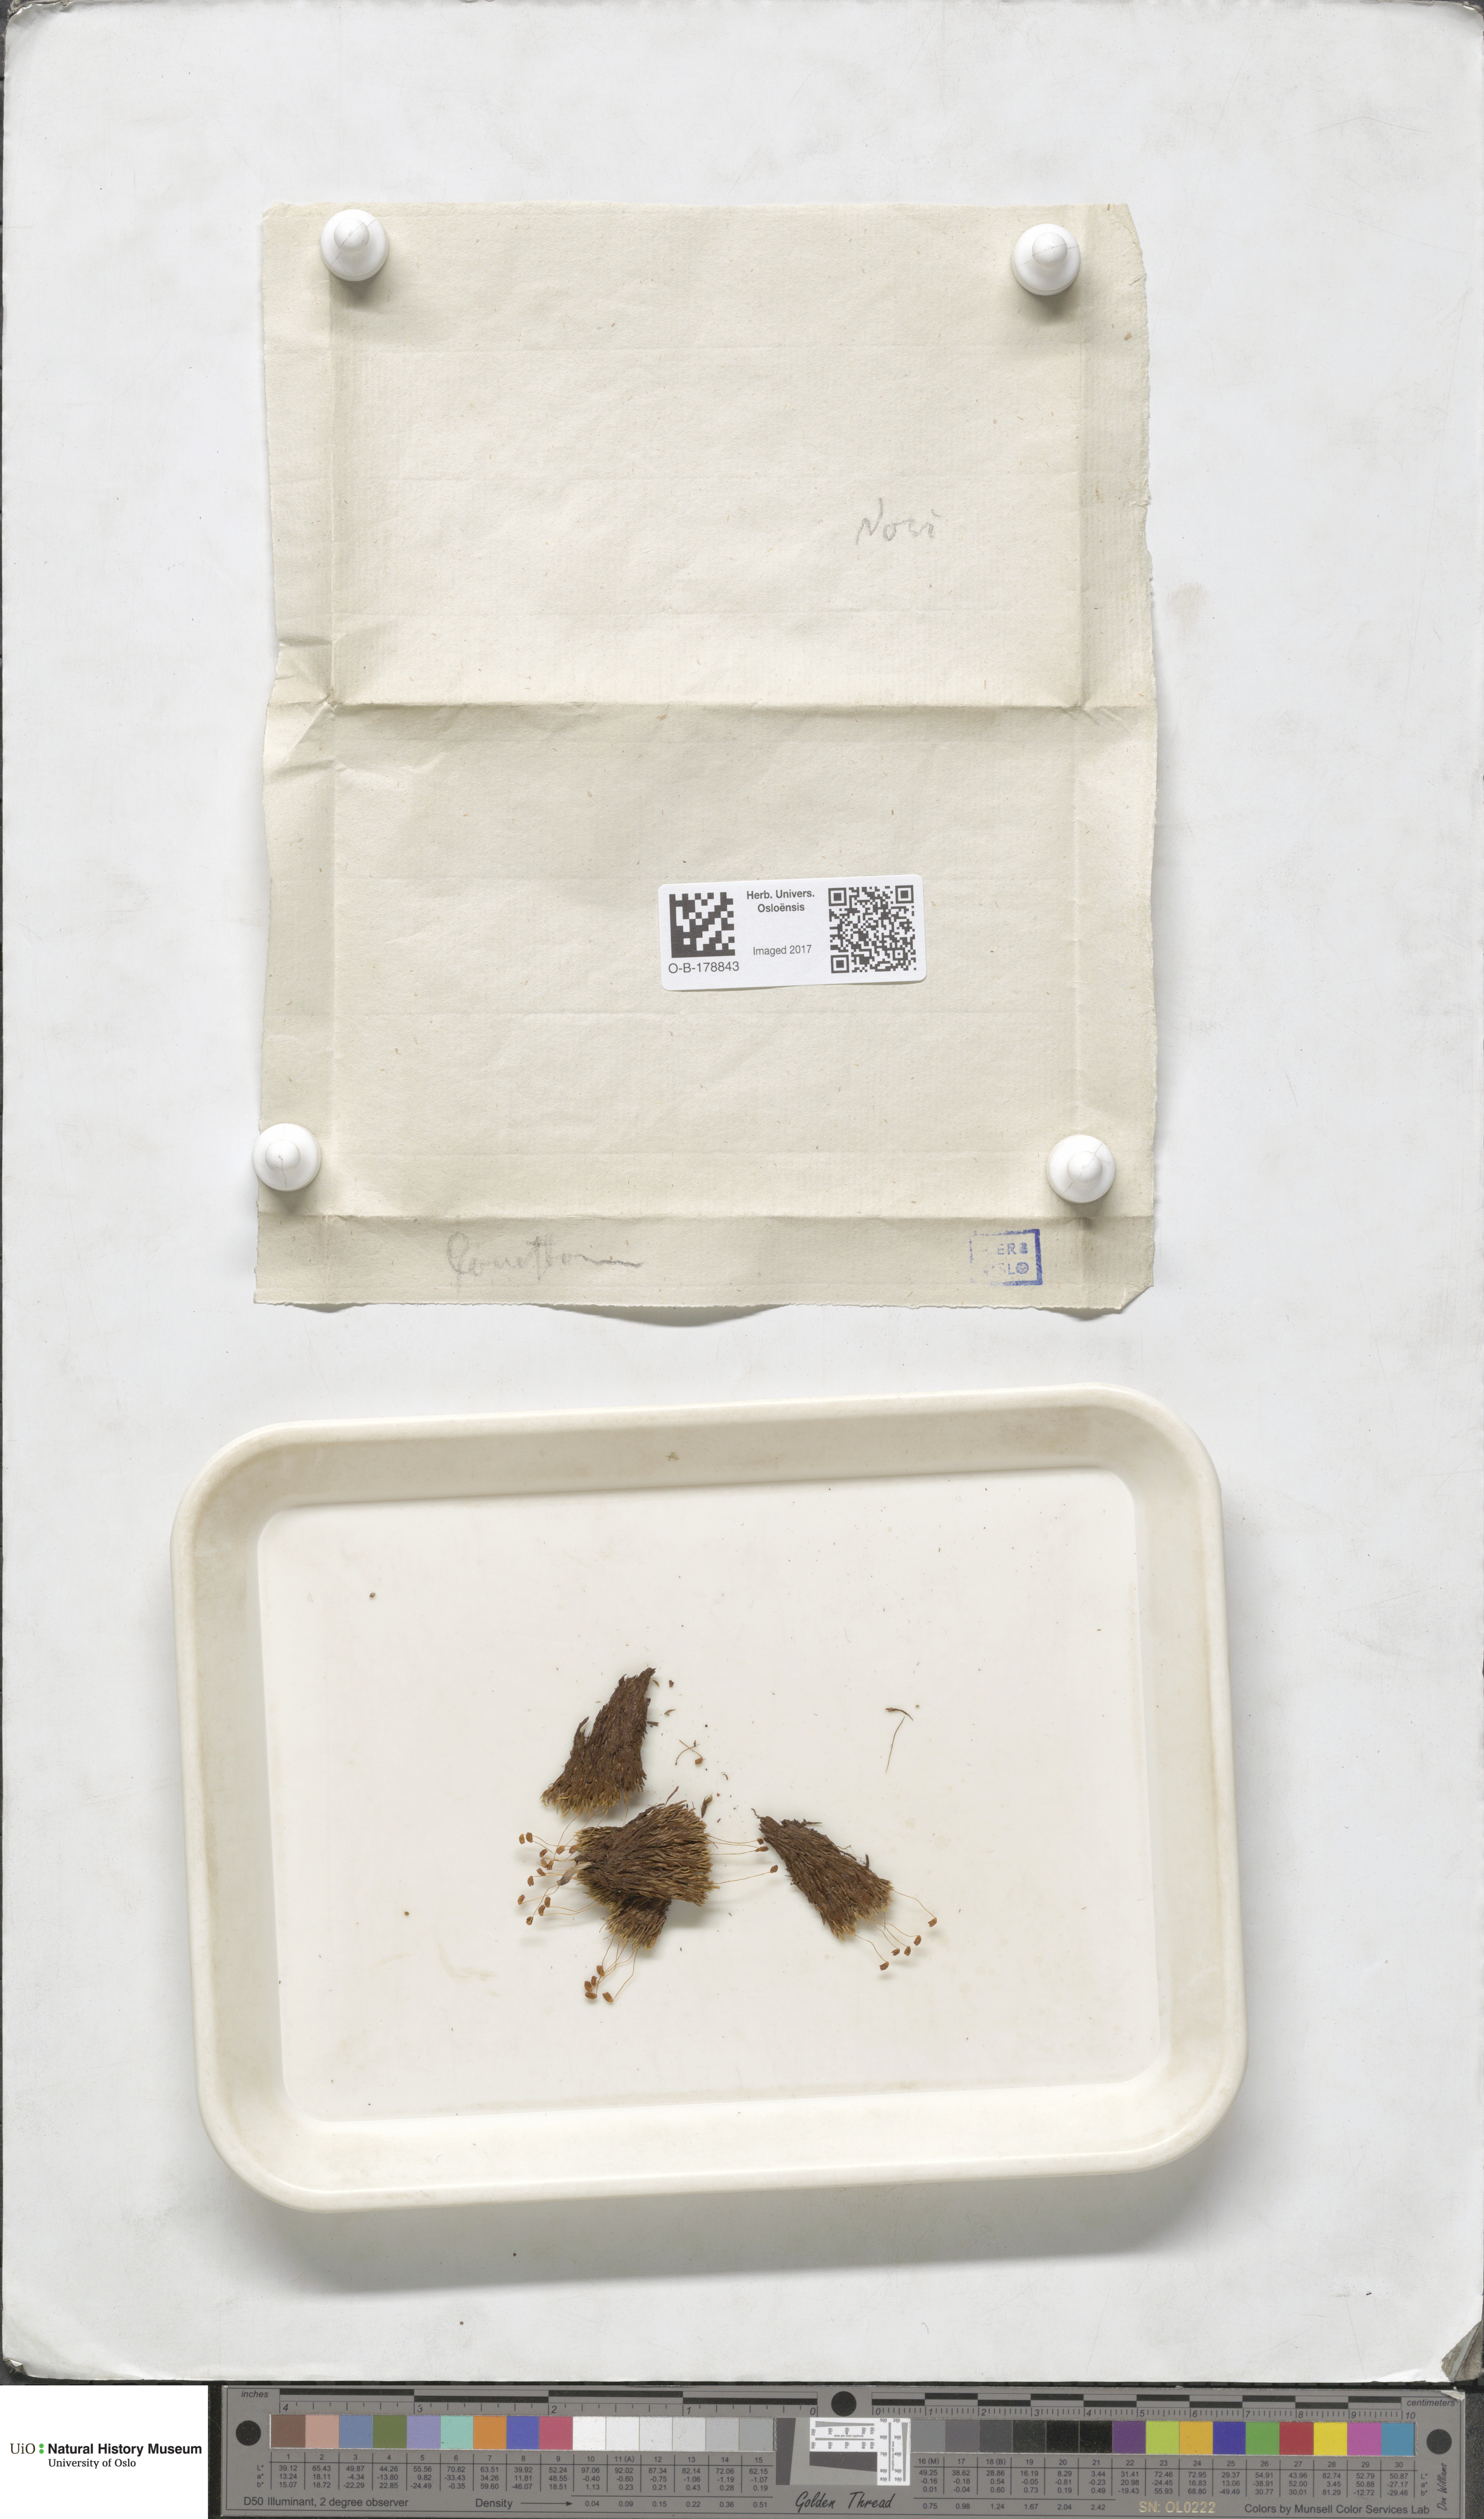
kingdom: Plantae
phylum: Bryophyta
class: Bryopsida
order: Bartramiales
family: Bartramiaceae
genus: Conostomum
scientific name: Conostomum tetragonum
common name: Helmet moss
